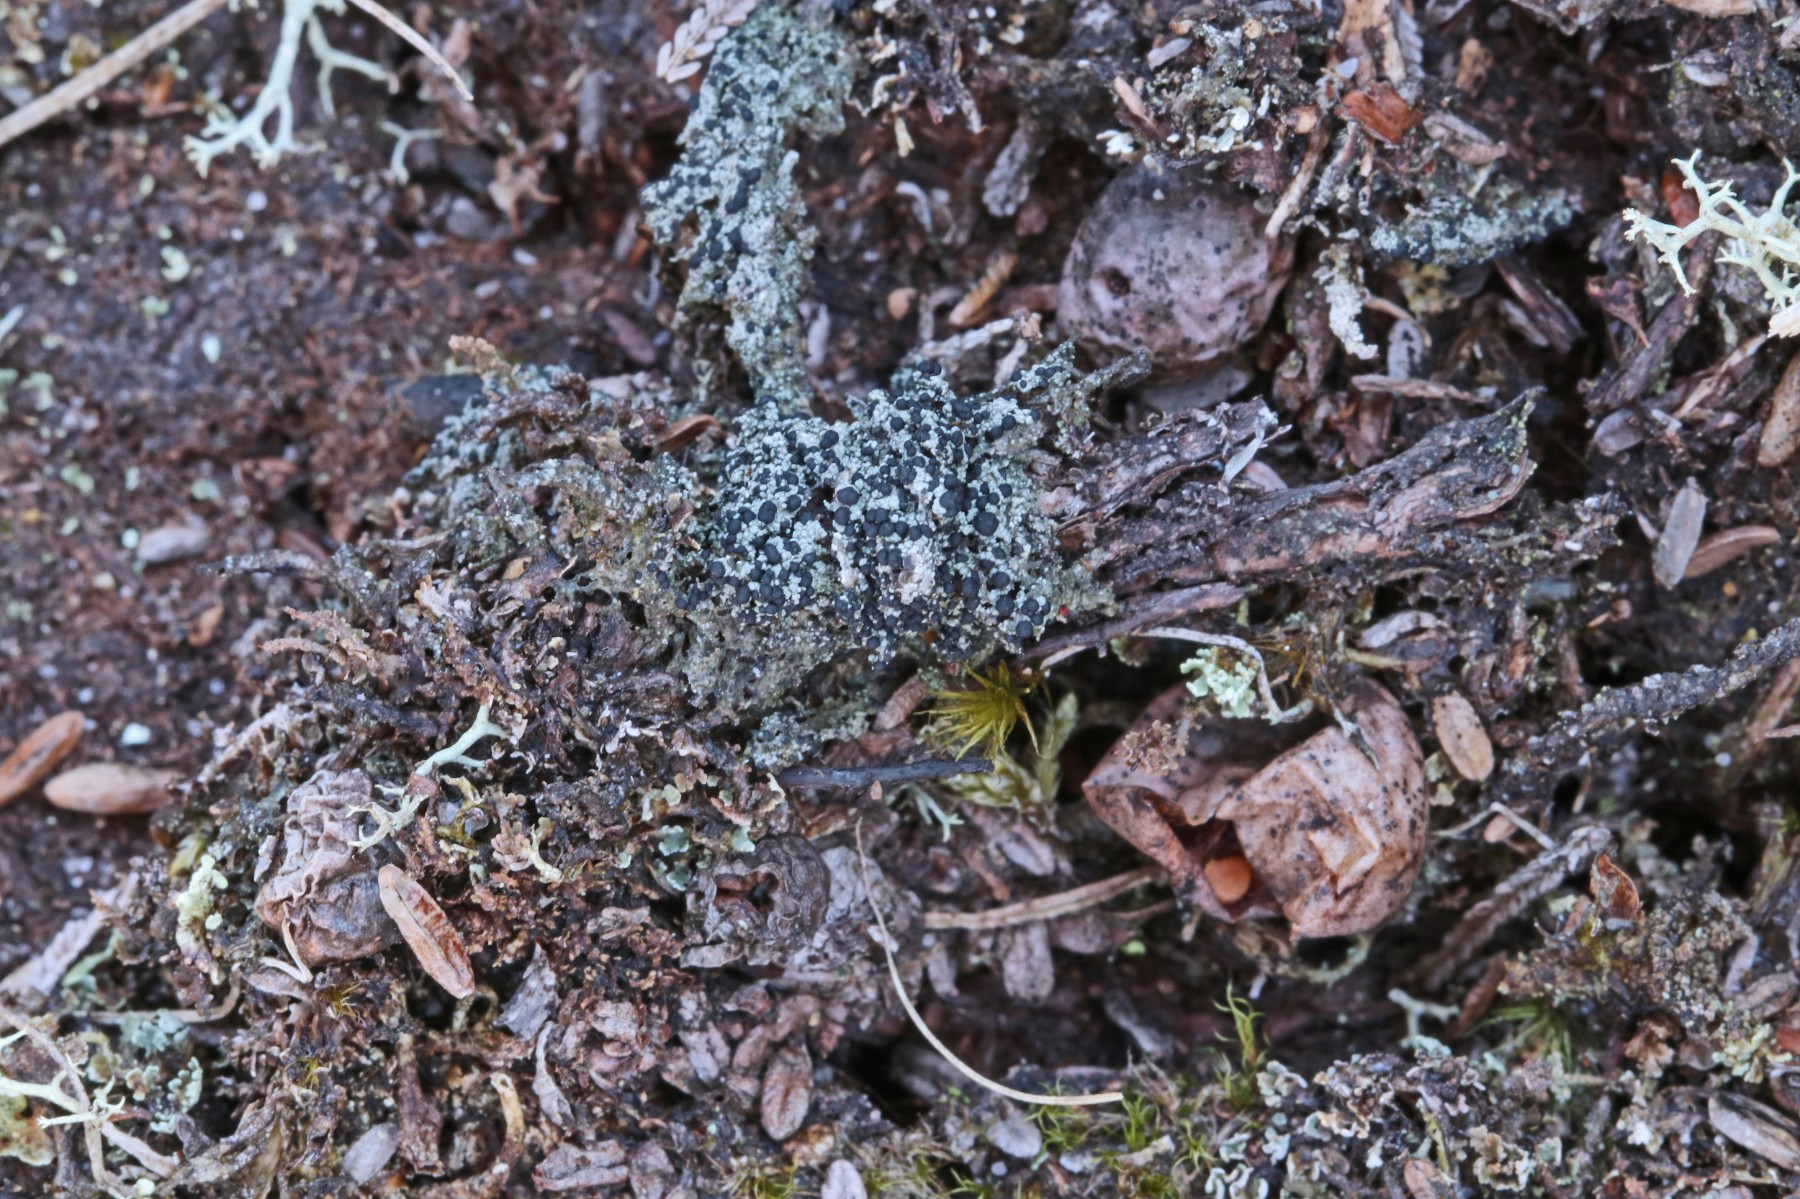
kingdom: Fungi
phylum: Ascomycota
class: Lecanoromycetes
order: Lecanorales
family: Byssolomataceae
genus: Micarea
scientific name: Micarea lignaria
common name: tørve-knaplav
